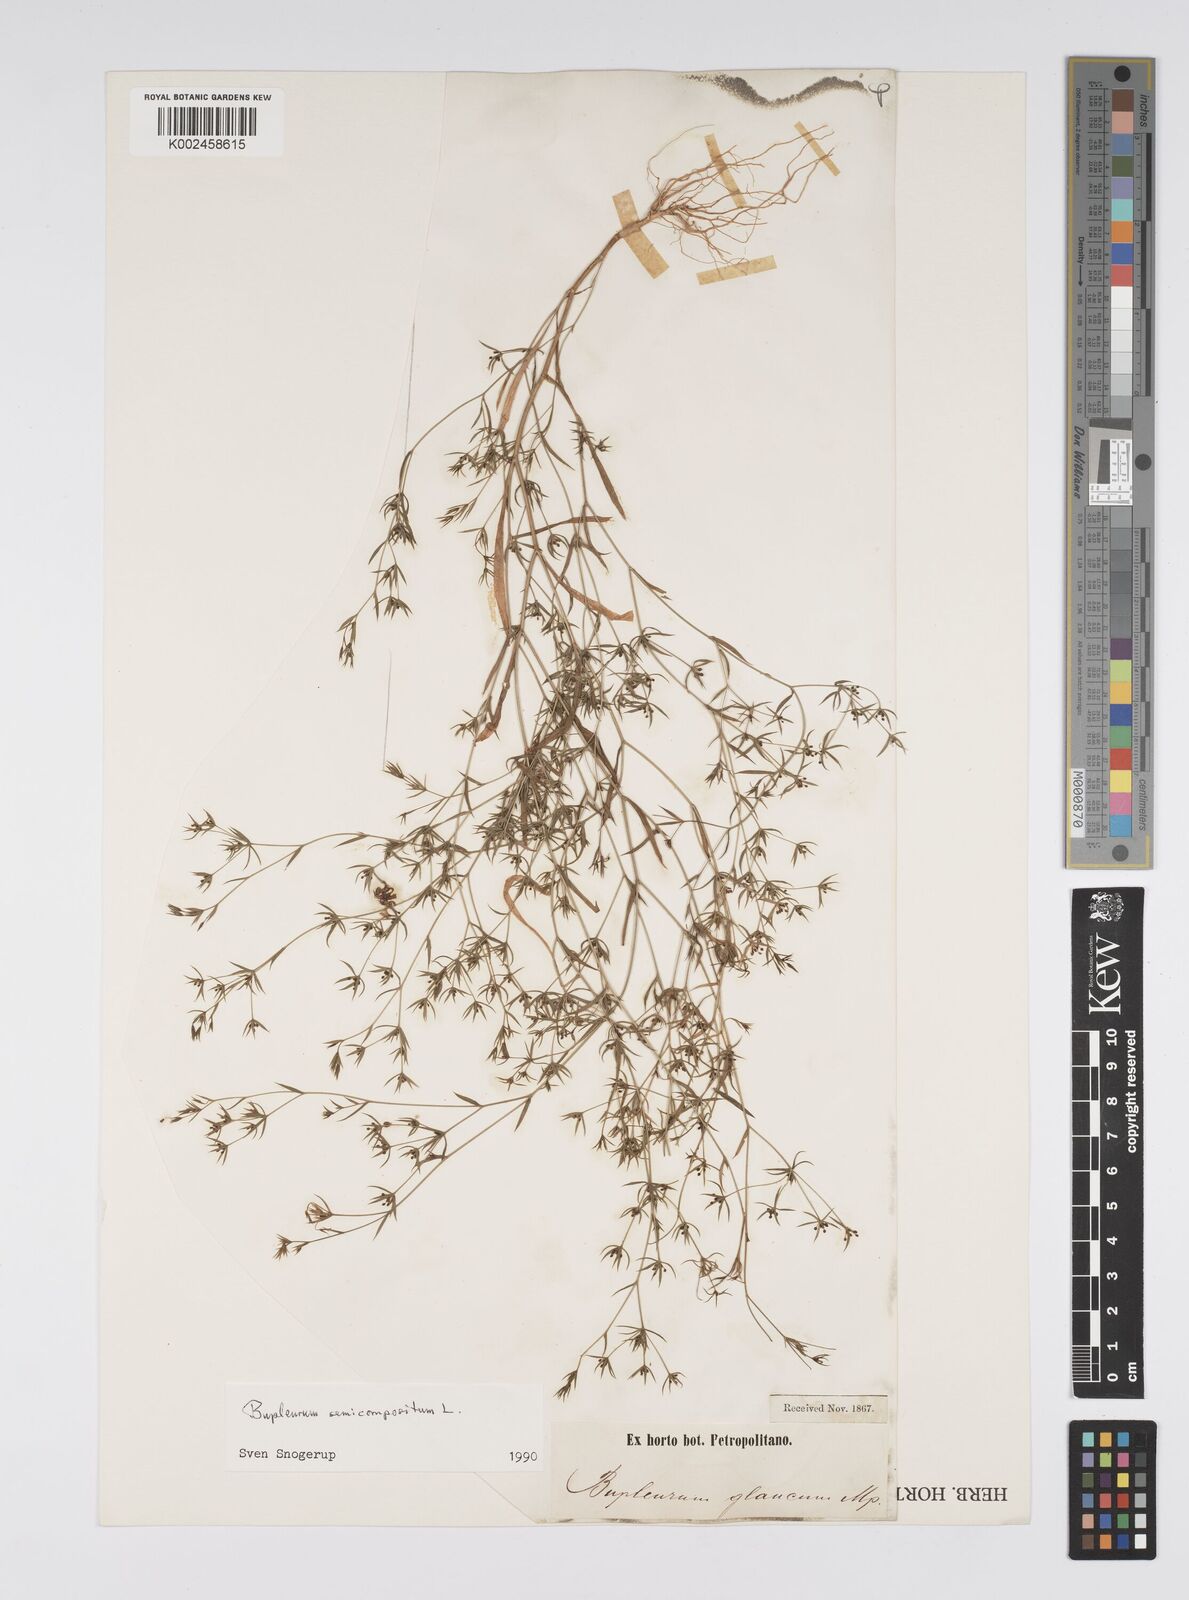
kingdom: Plantae
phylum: Tracheophyta
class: Magnoliopsida
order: Apiales
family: Apiaceae
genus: Bupleurum
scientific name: Bupleurum semicompositum
